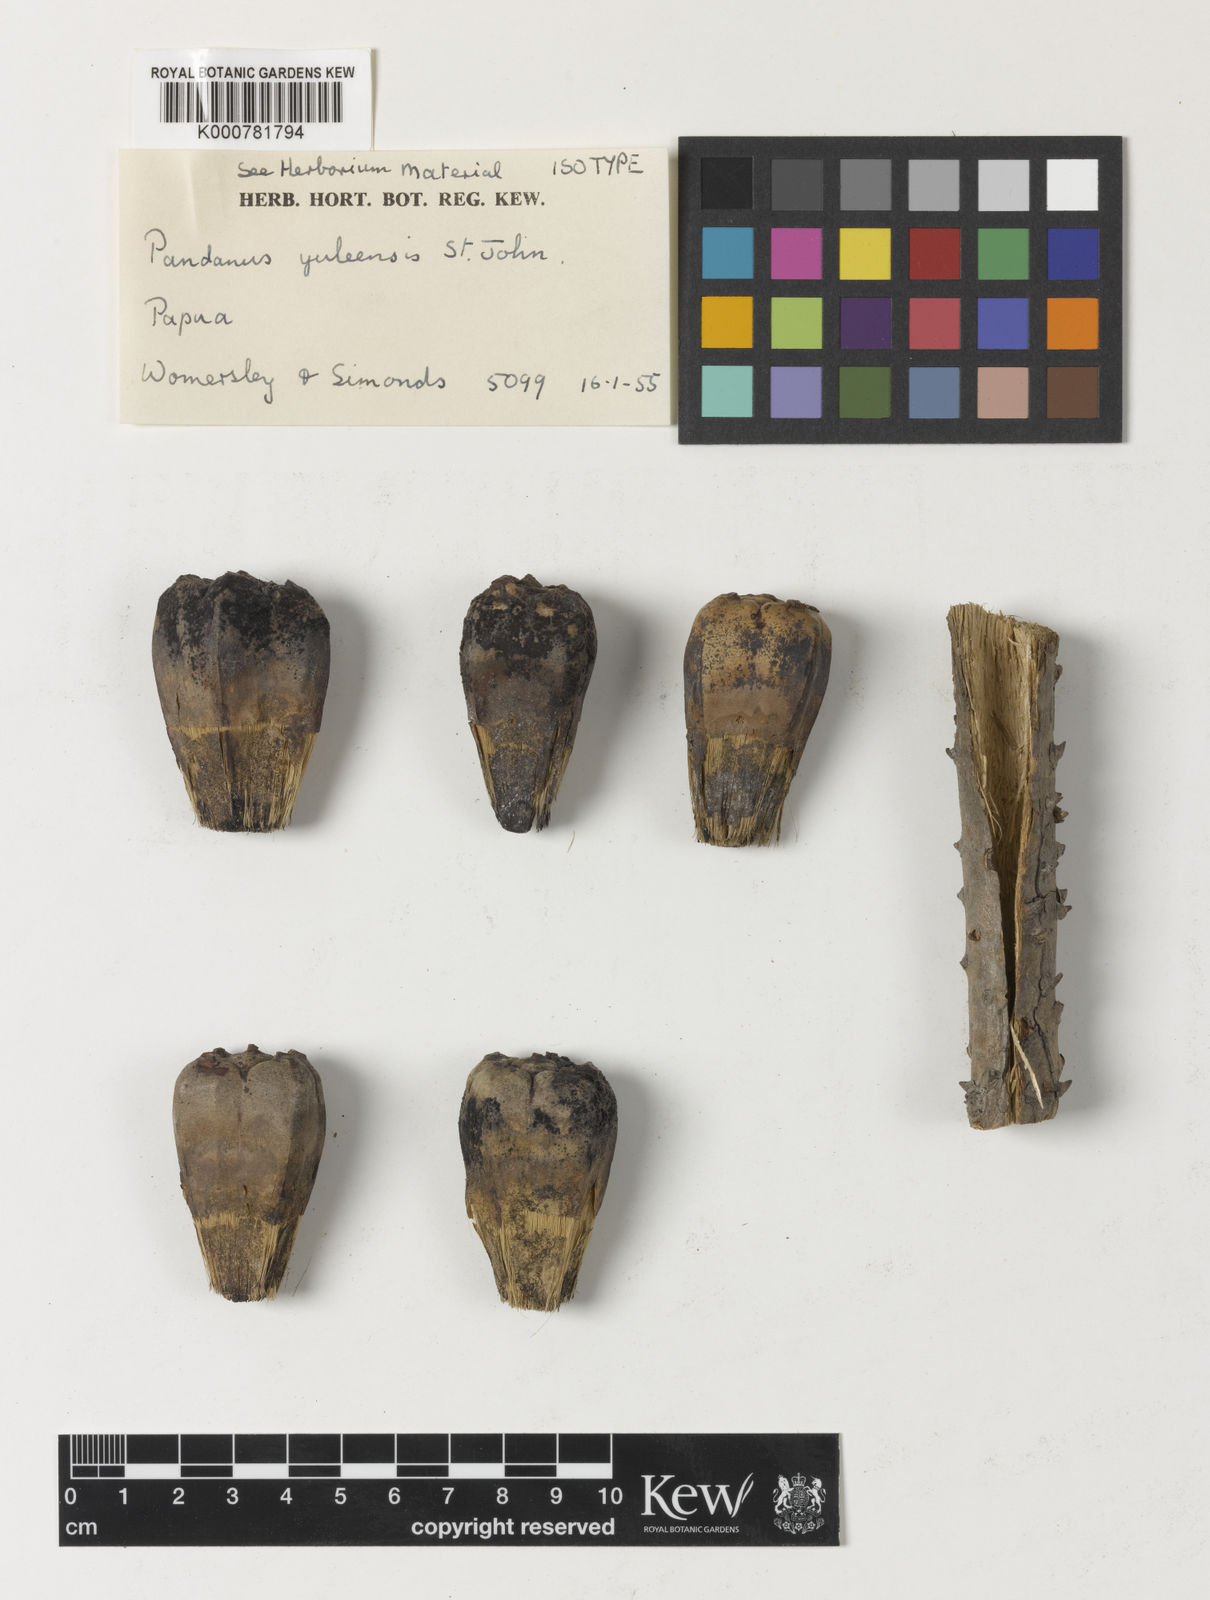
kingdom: Plantae
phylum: Tracheophyta
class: Liliopsida
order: Pandanales
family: Pandanaceae
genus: Pandanus
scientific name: Pandanus yuleensis
